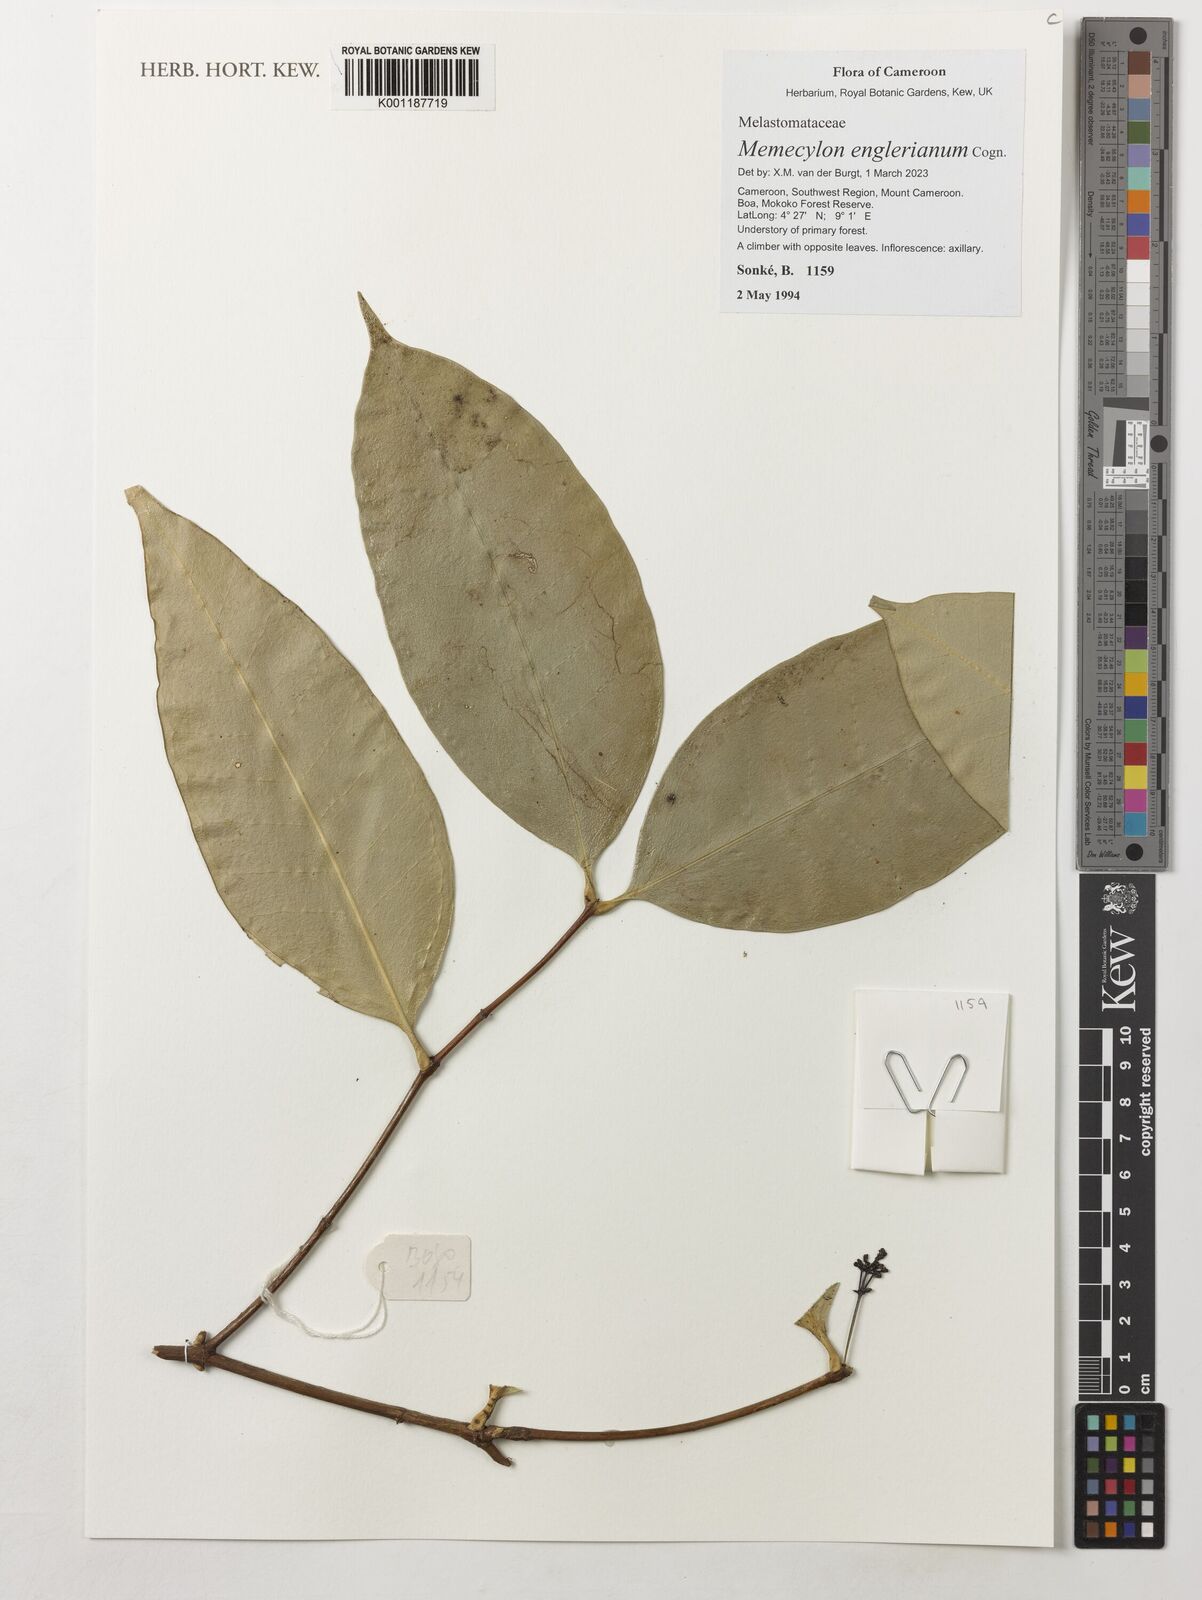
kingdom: Plantae
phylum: Tracheophyta
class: Magnoliopsida
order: Myrtales
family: Melastomataceae
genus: Memecylon
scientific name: Memecylon englerianum
